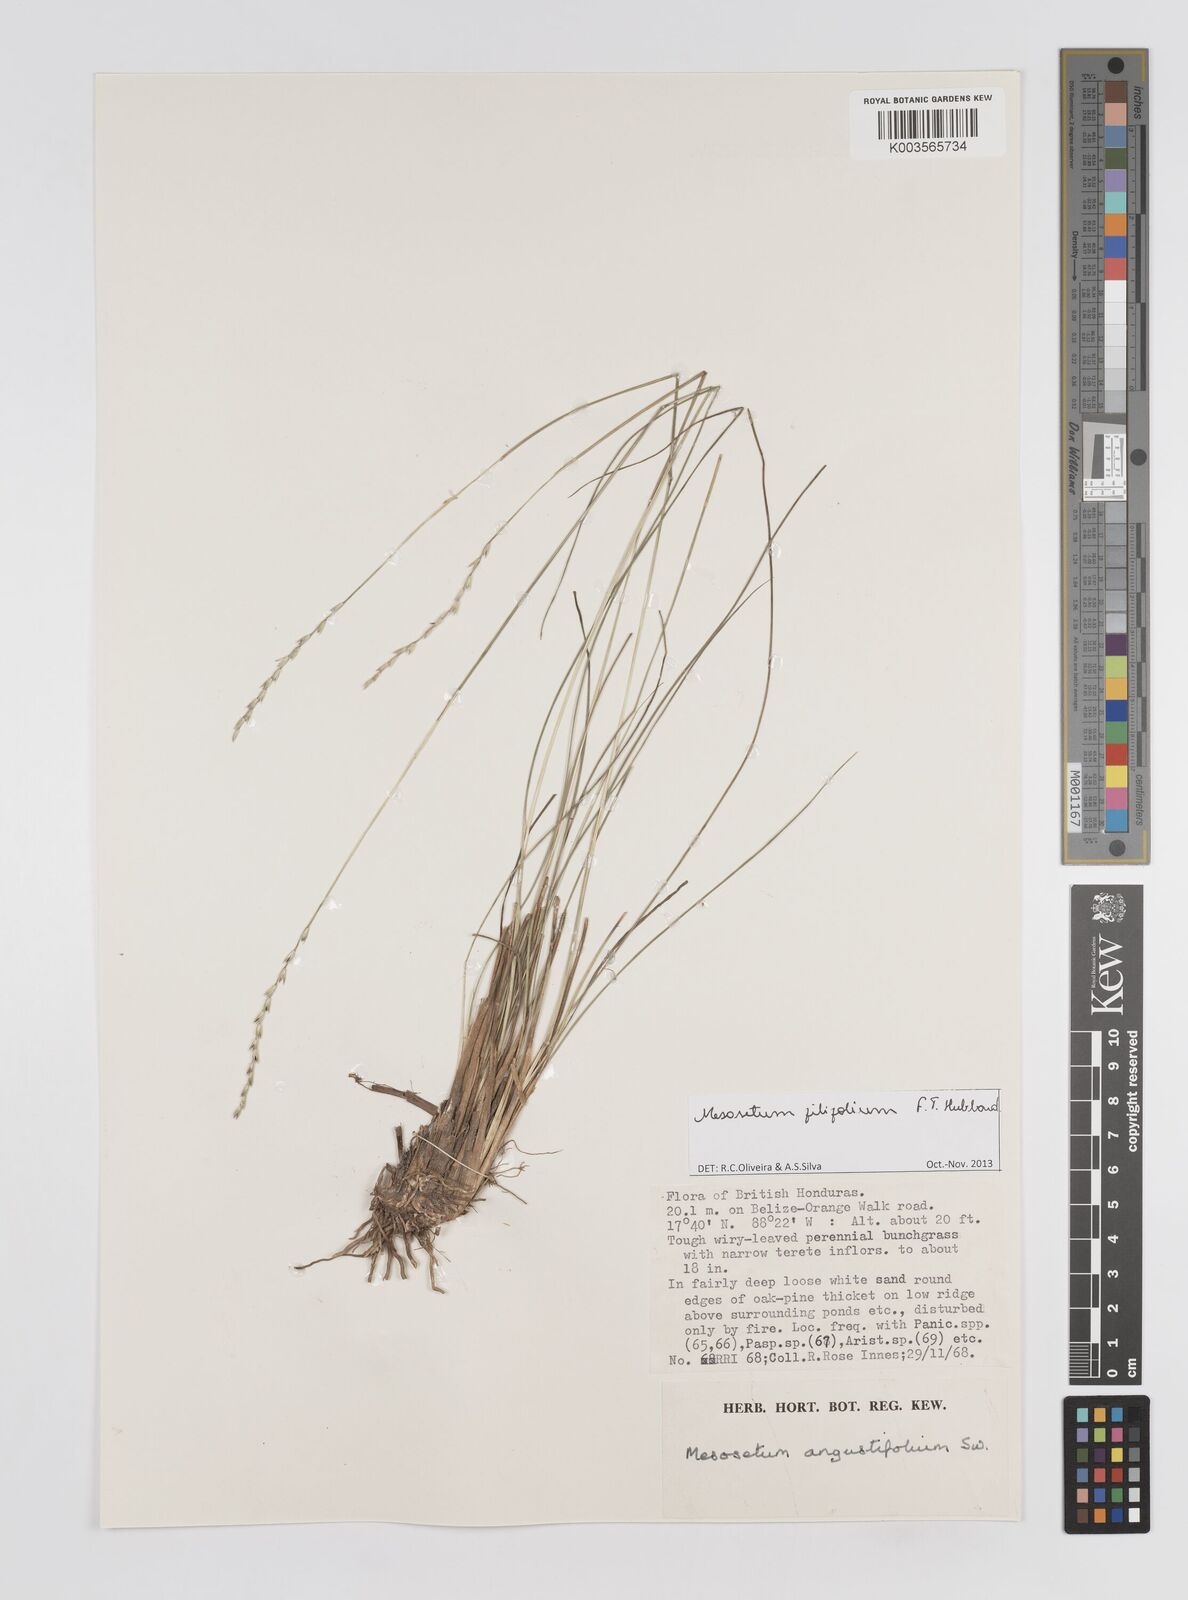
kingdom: Plantae
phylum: Tracheophyta
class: Liliopsida
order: Poales
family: Poaceae
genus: Mesosetum
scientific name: Mesosetum filifolium
